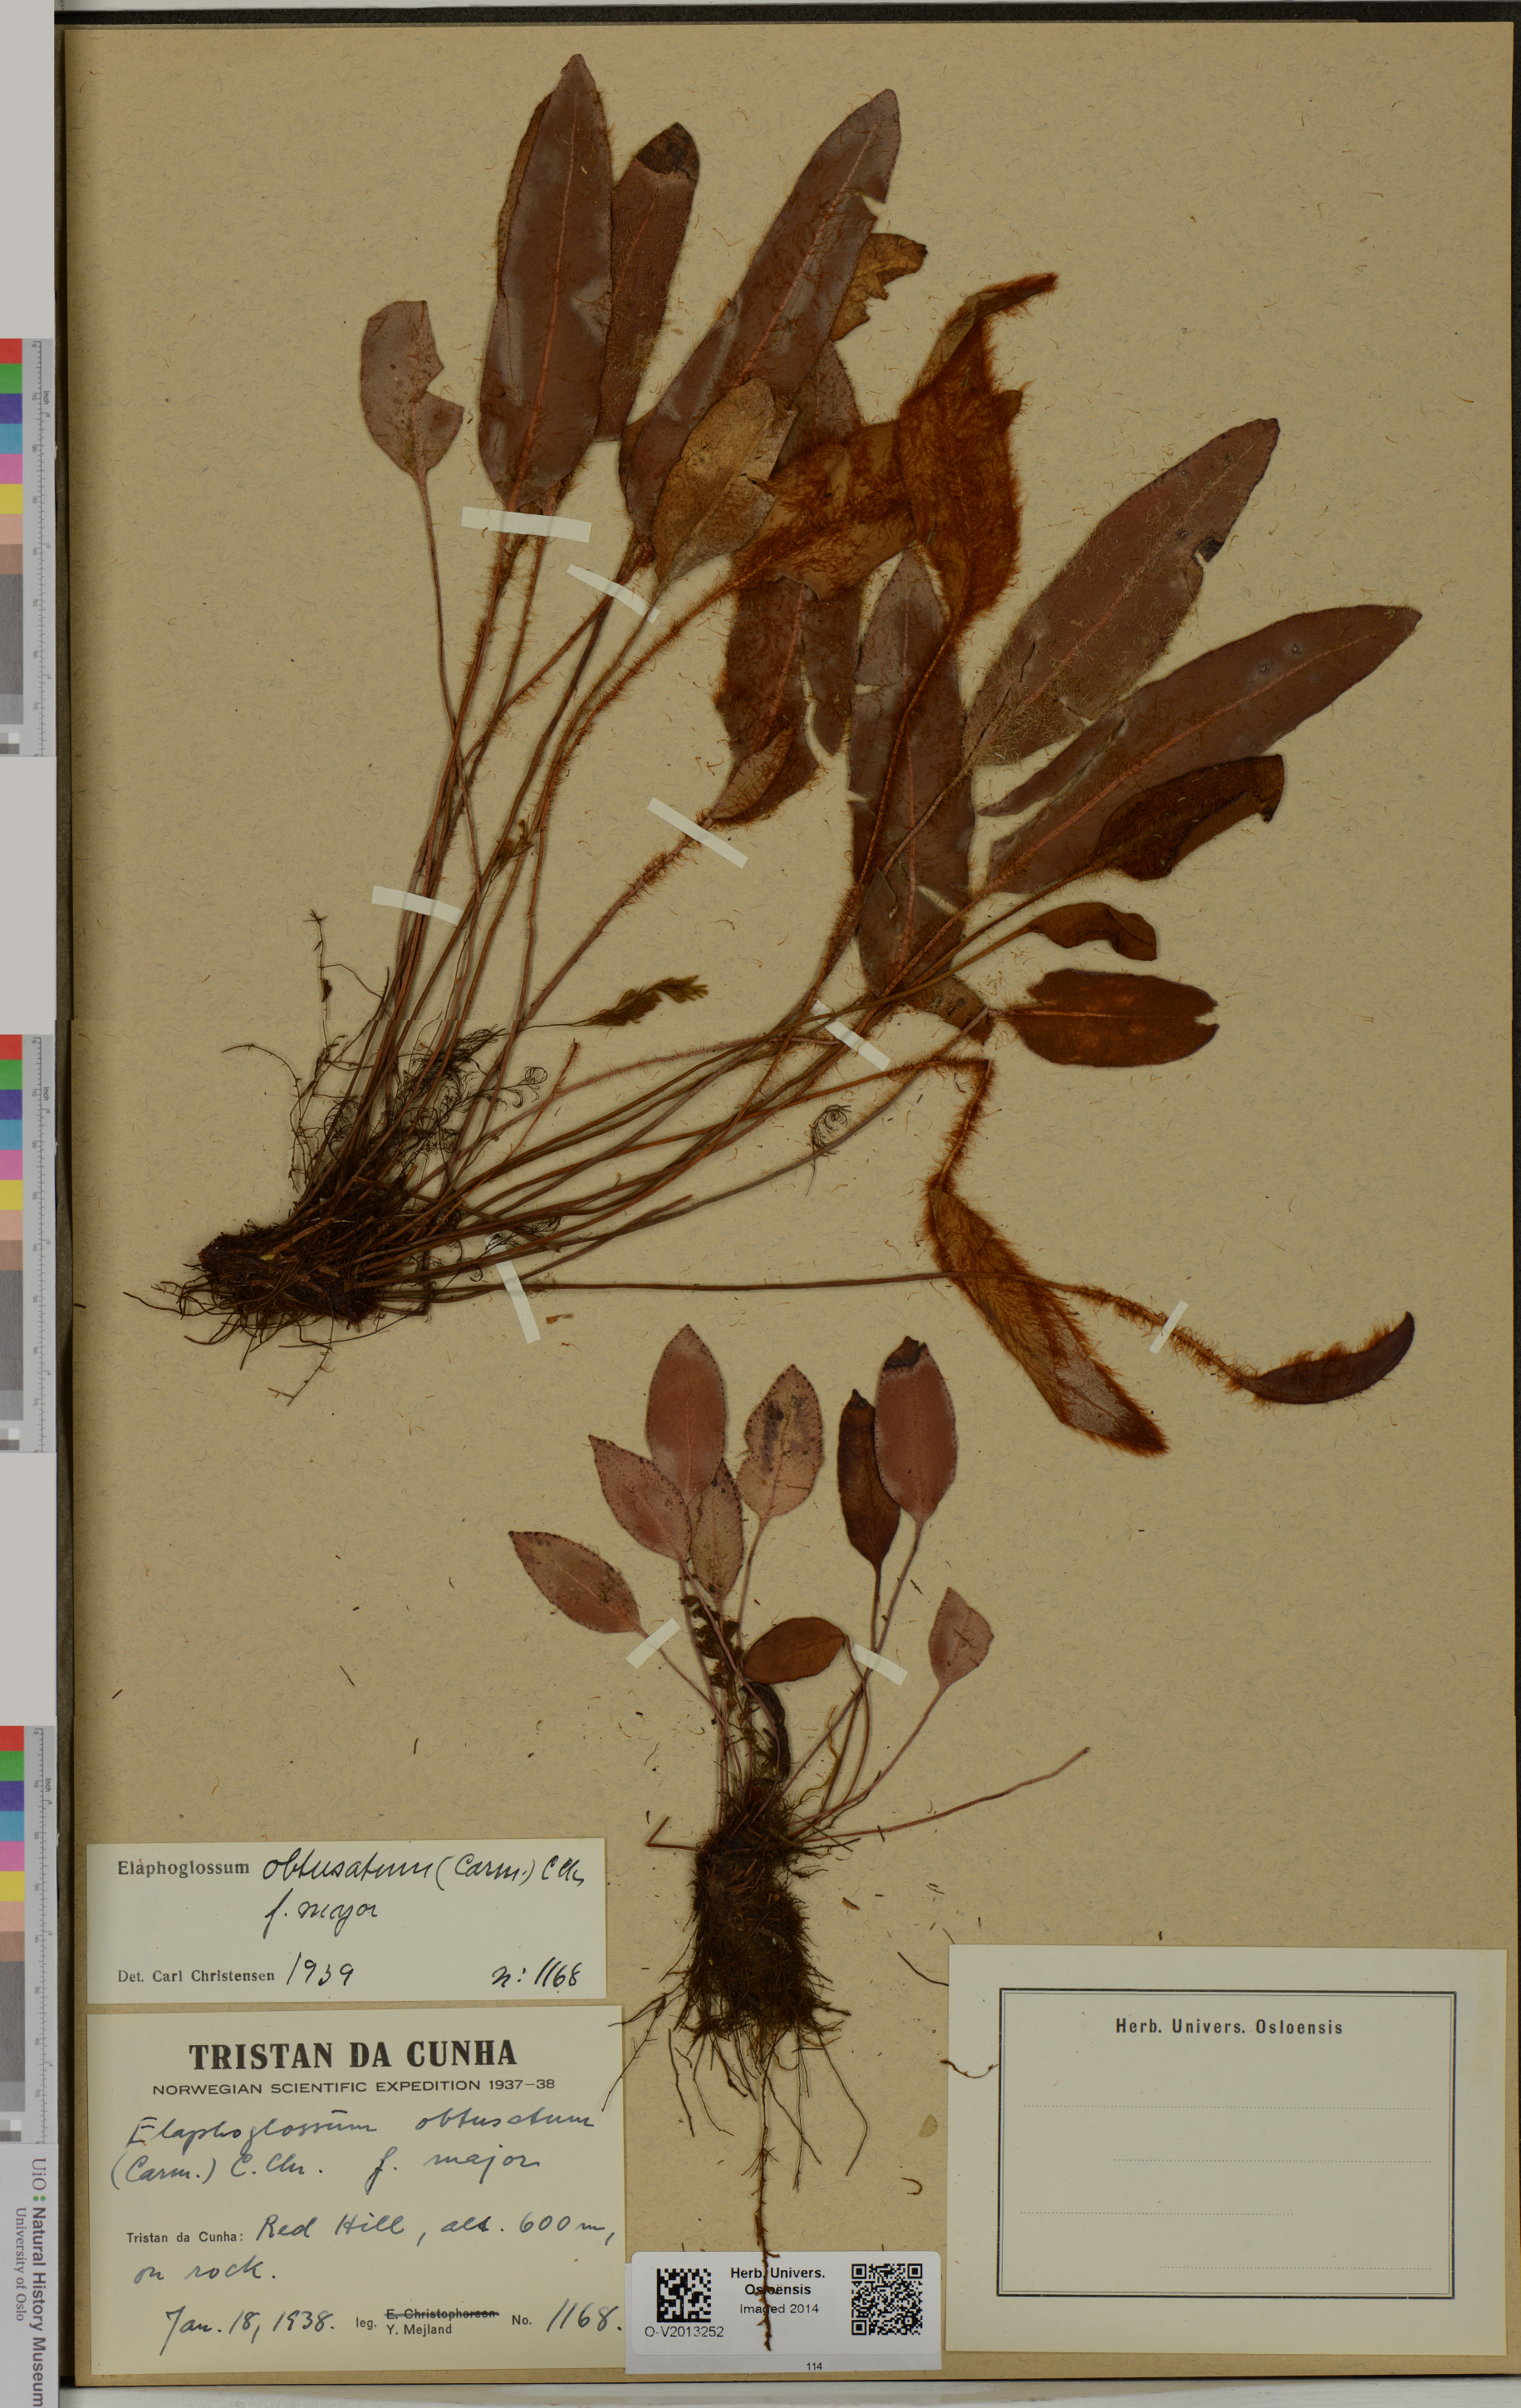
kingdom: Plantae
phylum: Tracheophyta
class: Polypodiopsida
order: Polypodiales
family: Dryopteridaceae
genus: Elaphoglossum
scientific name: Elaphoglossum obtusatum
